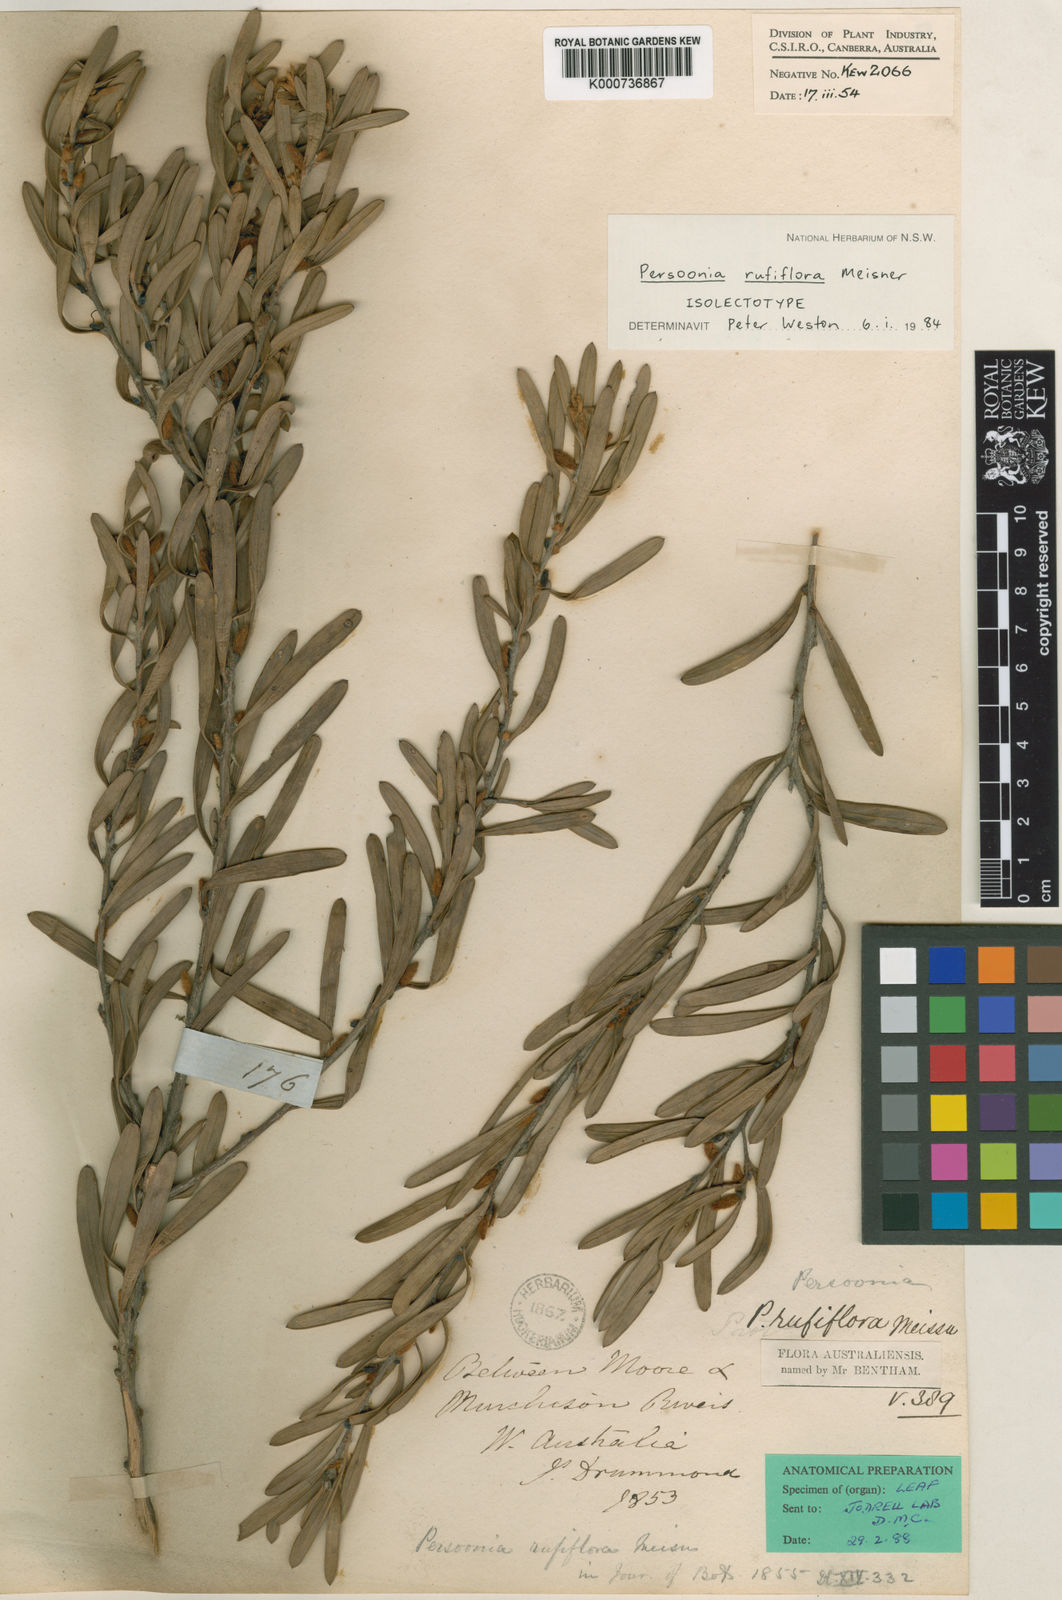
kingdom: Plantae
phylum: Tracheophyta
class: Magnoliopsida
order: Proteales
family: Proteaceae
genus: Persoonia
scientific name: Persoonia rufiflora
